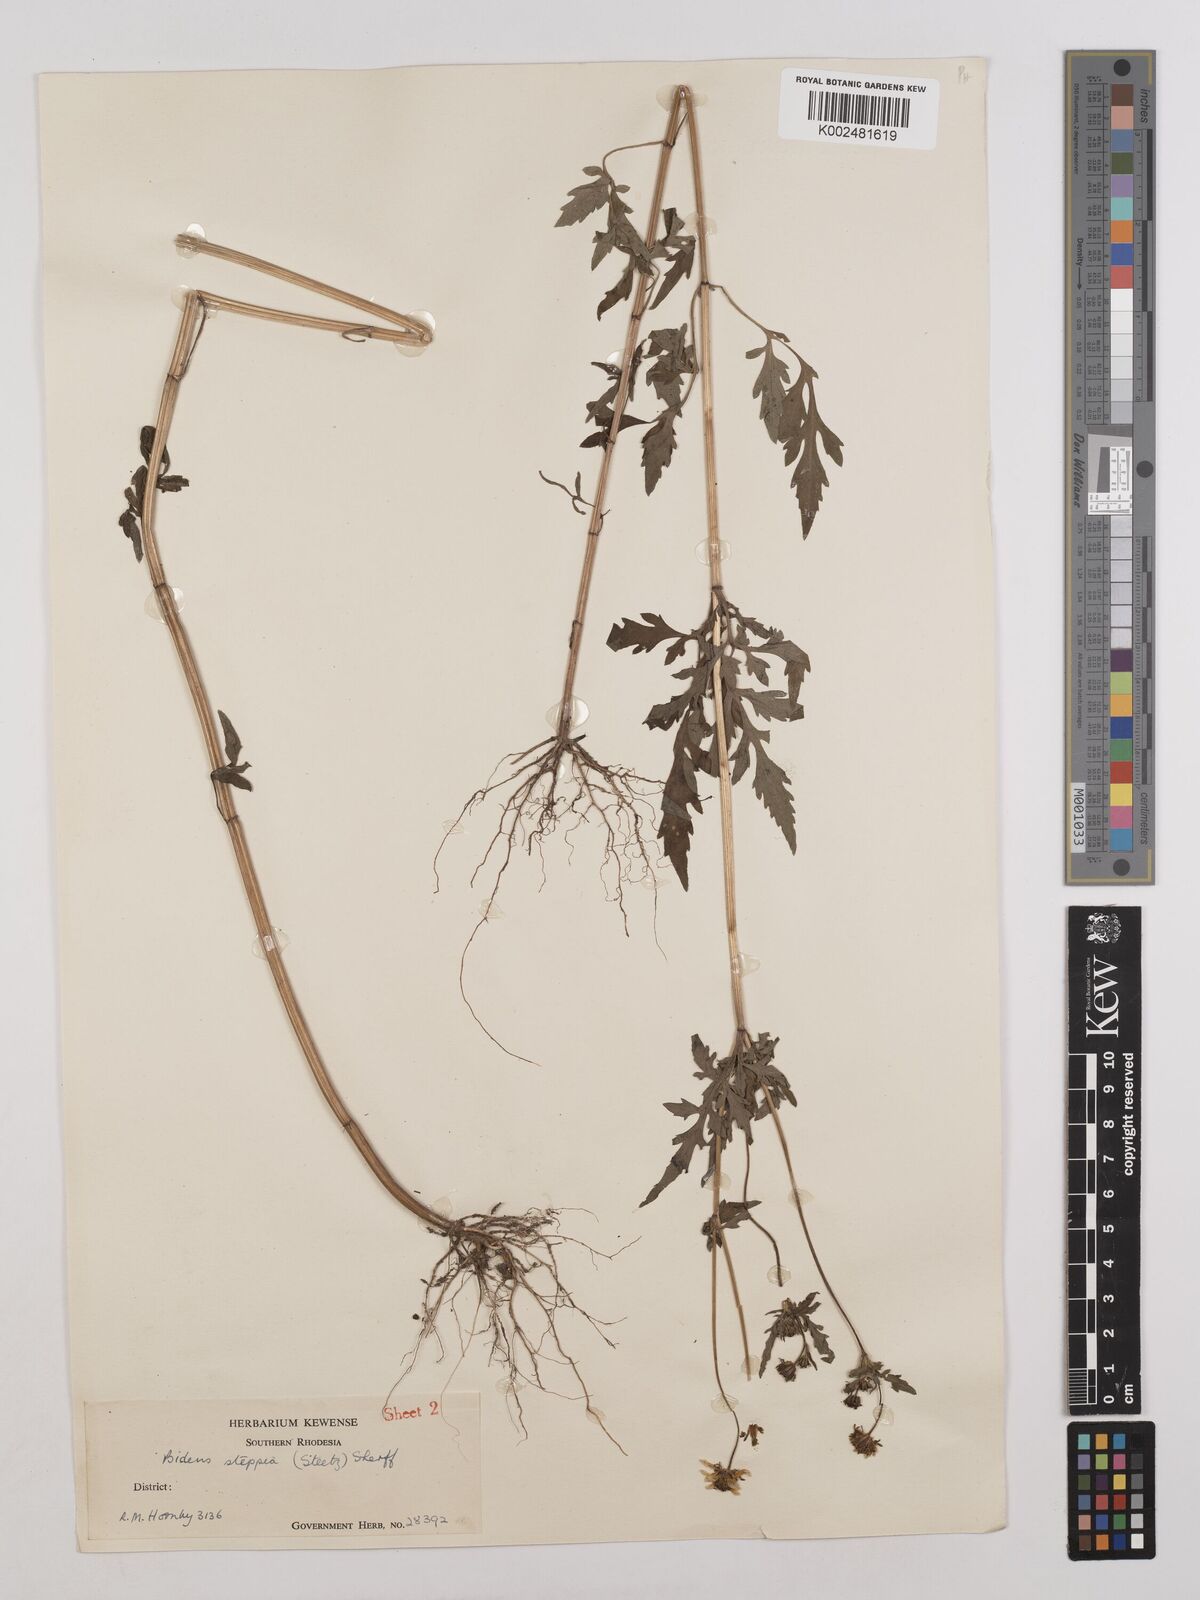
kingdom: Plantae
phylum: Tracheophyta
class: Magnoliopsida
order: Asterales
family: Asteraceae
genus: Bidens
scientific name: Bidens schimperi
